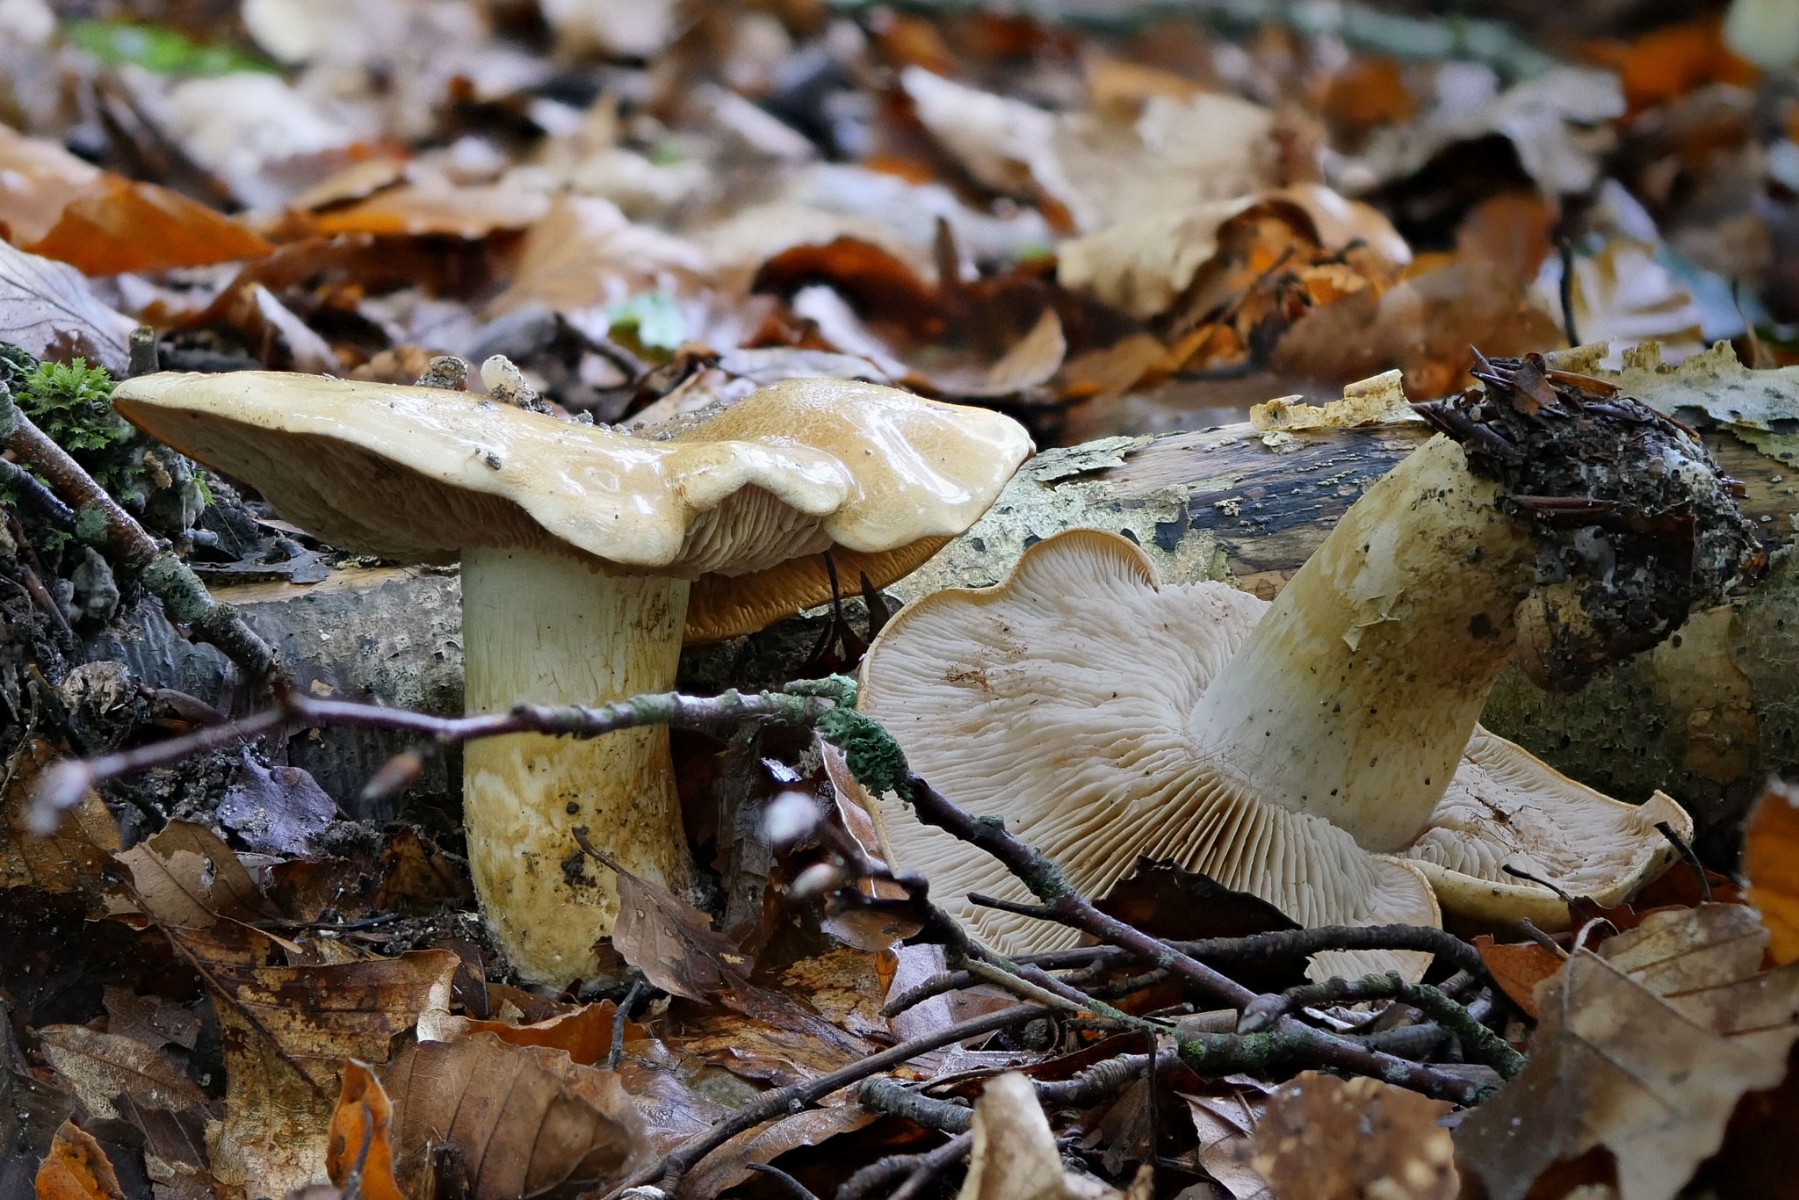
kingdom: Fungi
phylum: Basidiomycota
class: Agaricomycetes
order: Agaricales
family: Cortinariaceae
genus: Phlegmacium
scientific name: Phlegmacium cliduchus
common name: majs-slørhat
